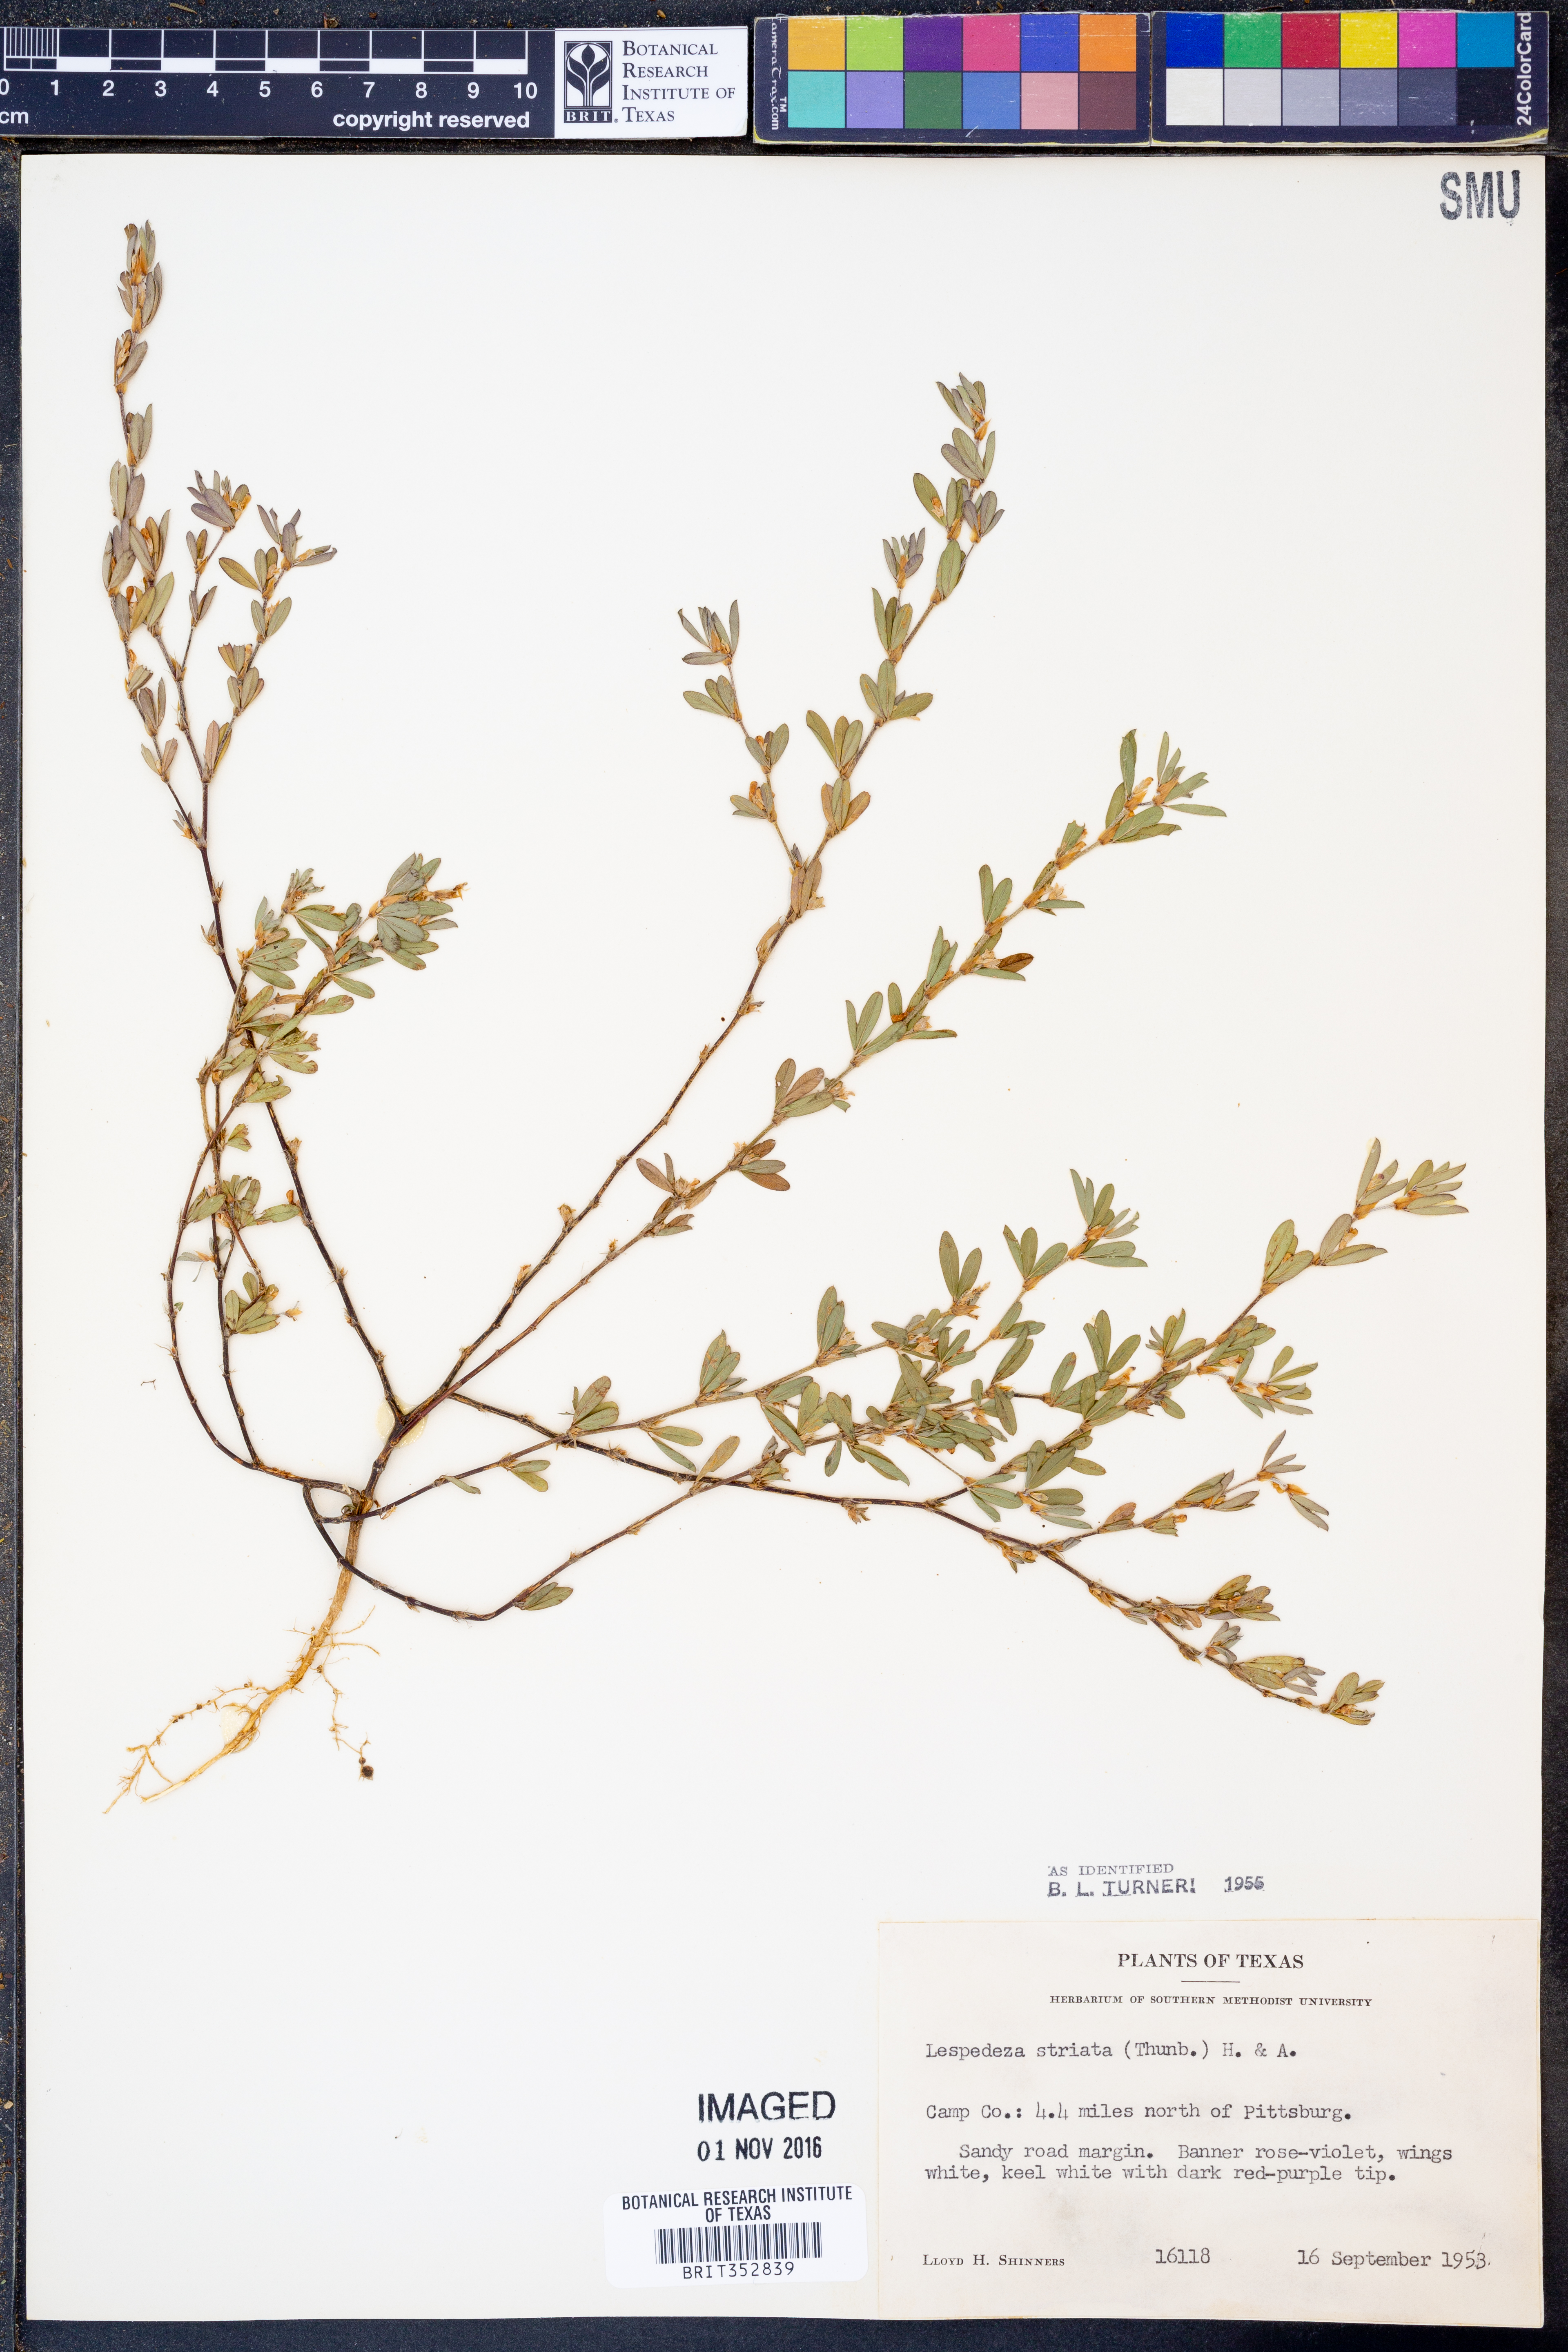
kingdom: Plantae
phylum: Tracheophyta
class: Magnoliopsida
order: Fabales
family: Fabaceae
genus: Kummerowia
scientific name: Kummerowia striata
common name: Japanese clover
